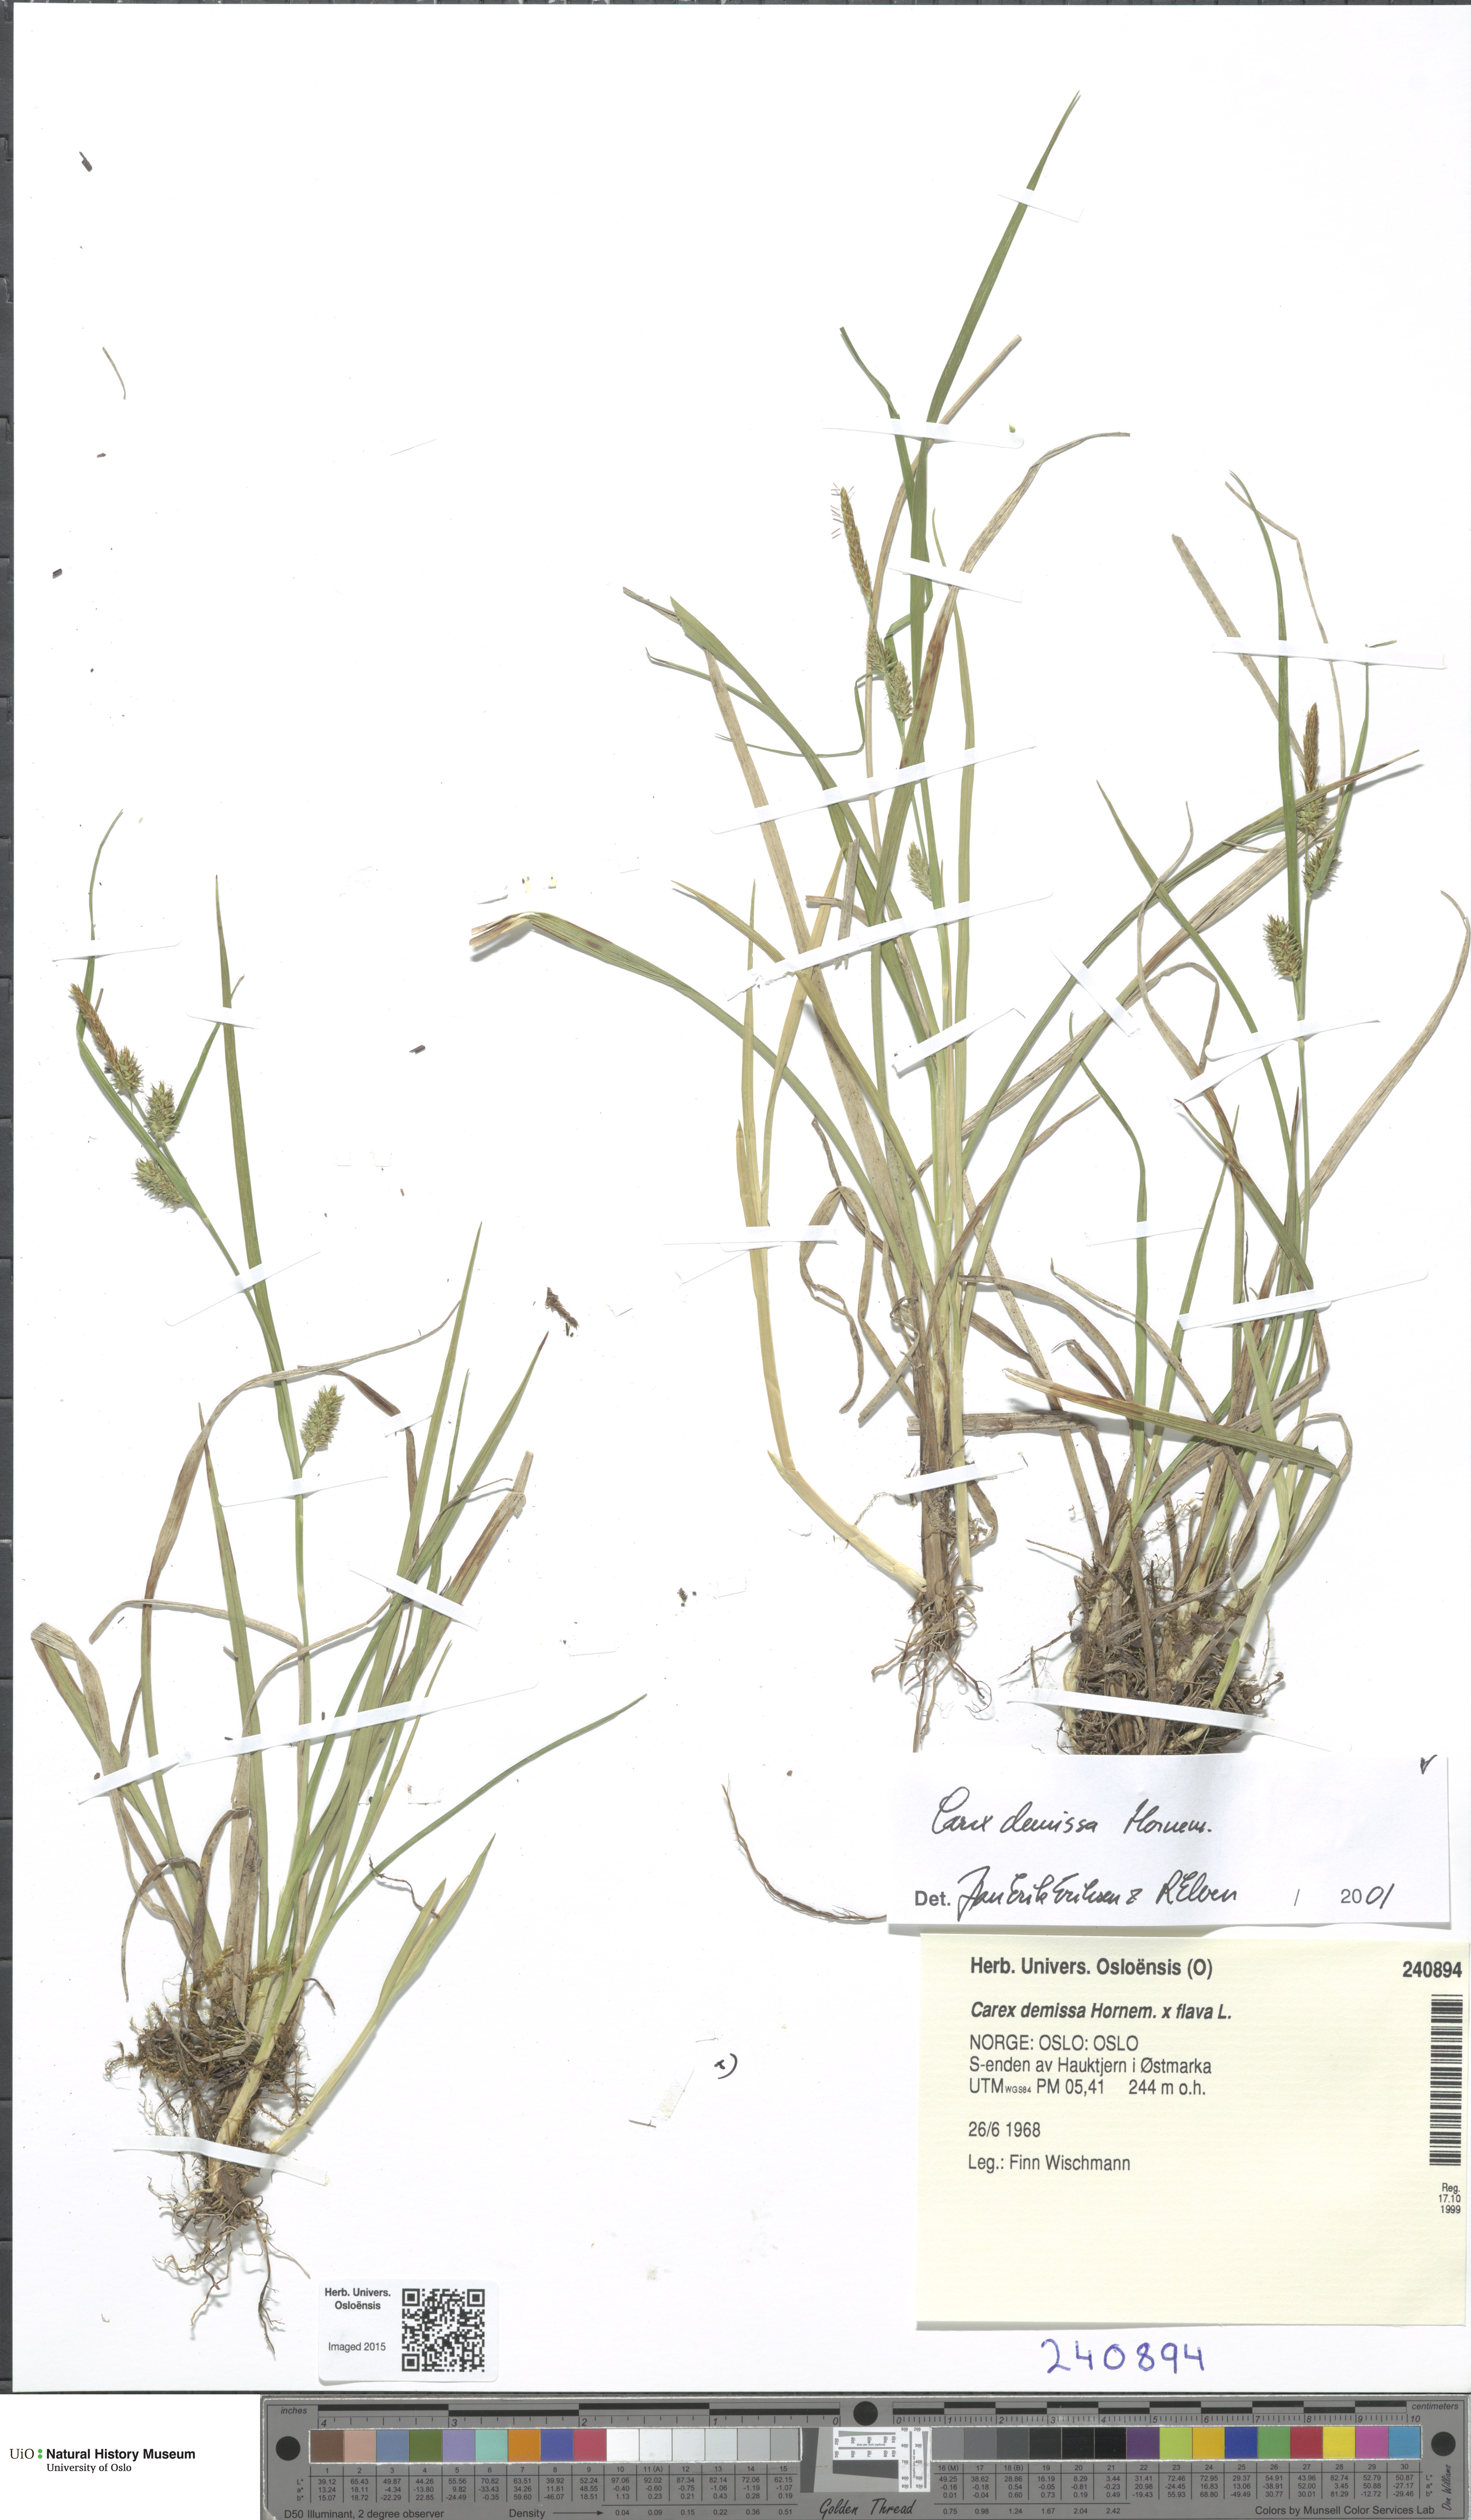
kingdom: Plantae
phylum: Tracheophyta
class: Liliopsida
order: Poales
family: Cyperaceae
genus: Carex
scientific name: Carex demissa
